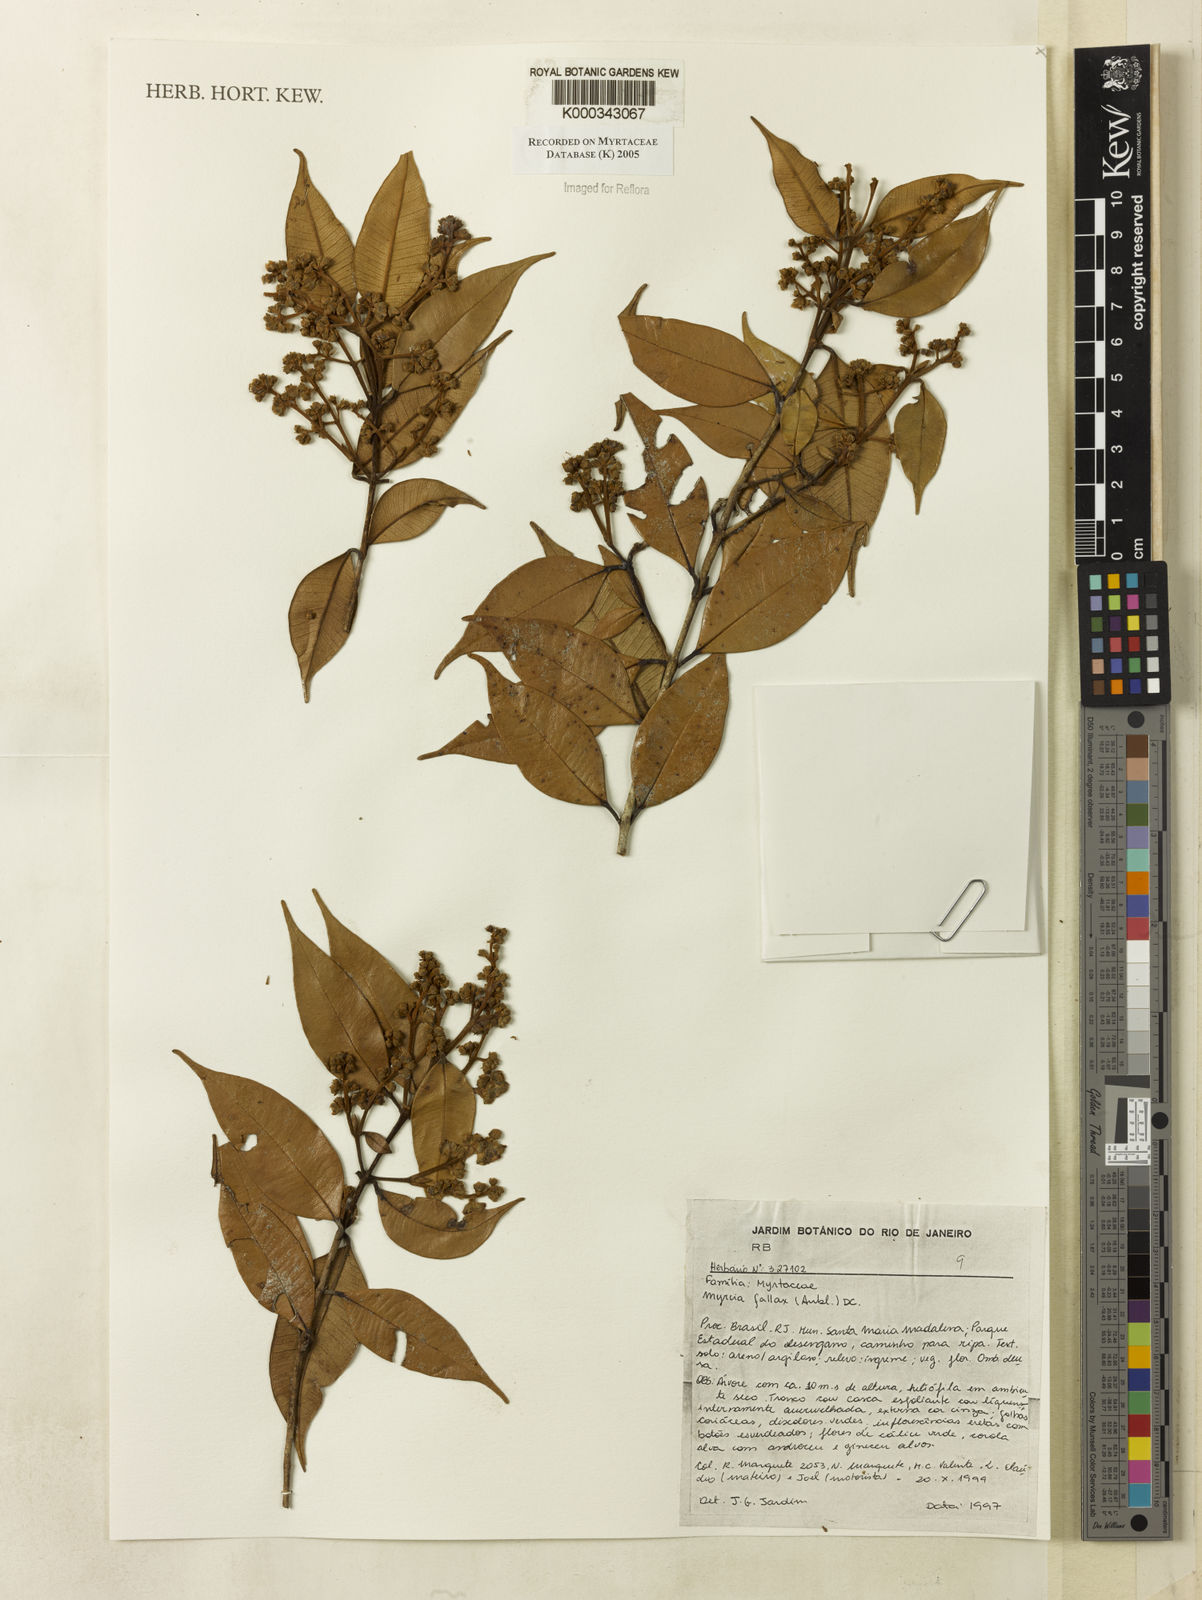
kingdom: Plantae
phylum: Tracheophyta
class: Magnoliopsida
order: Myrtales
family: Myrtaceae
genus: Myrcia
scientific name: Myrcia splendens
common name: Surinam cherry
